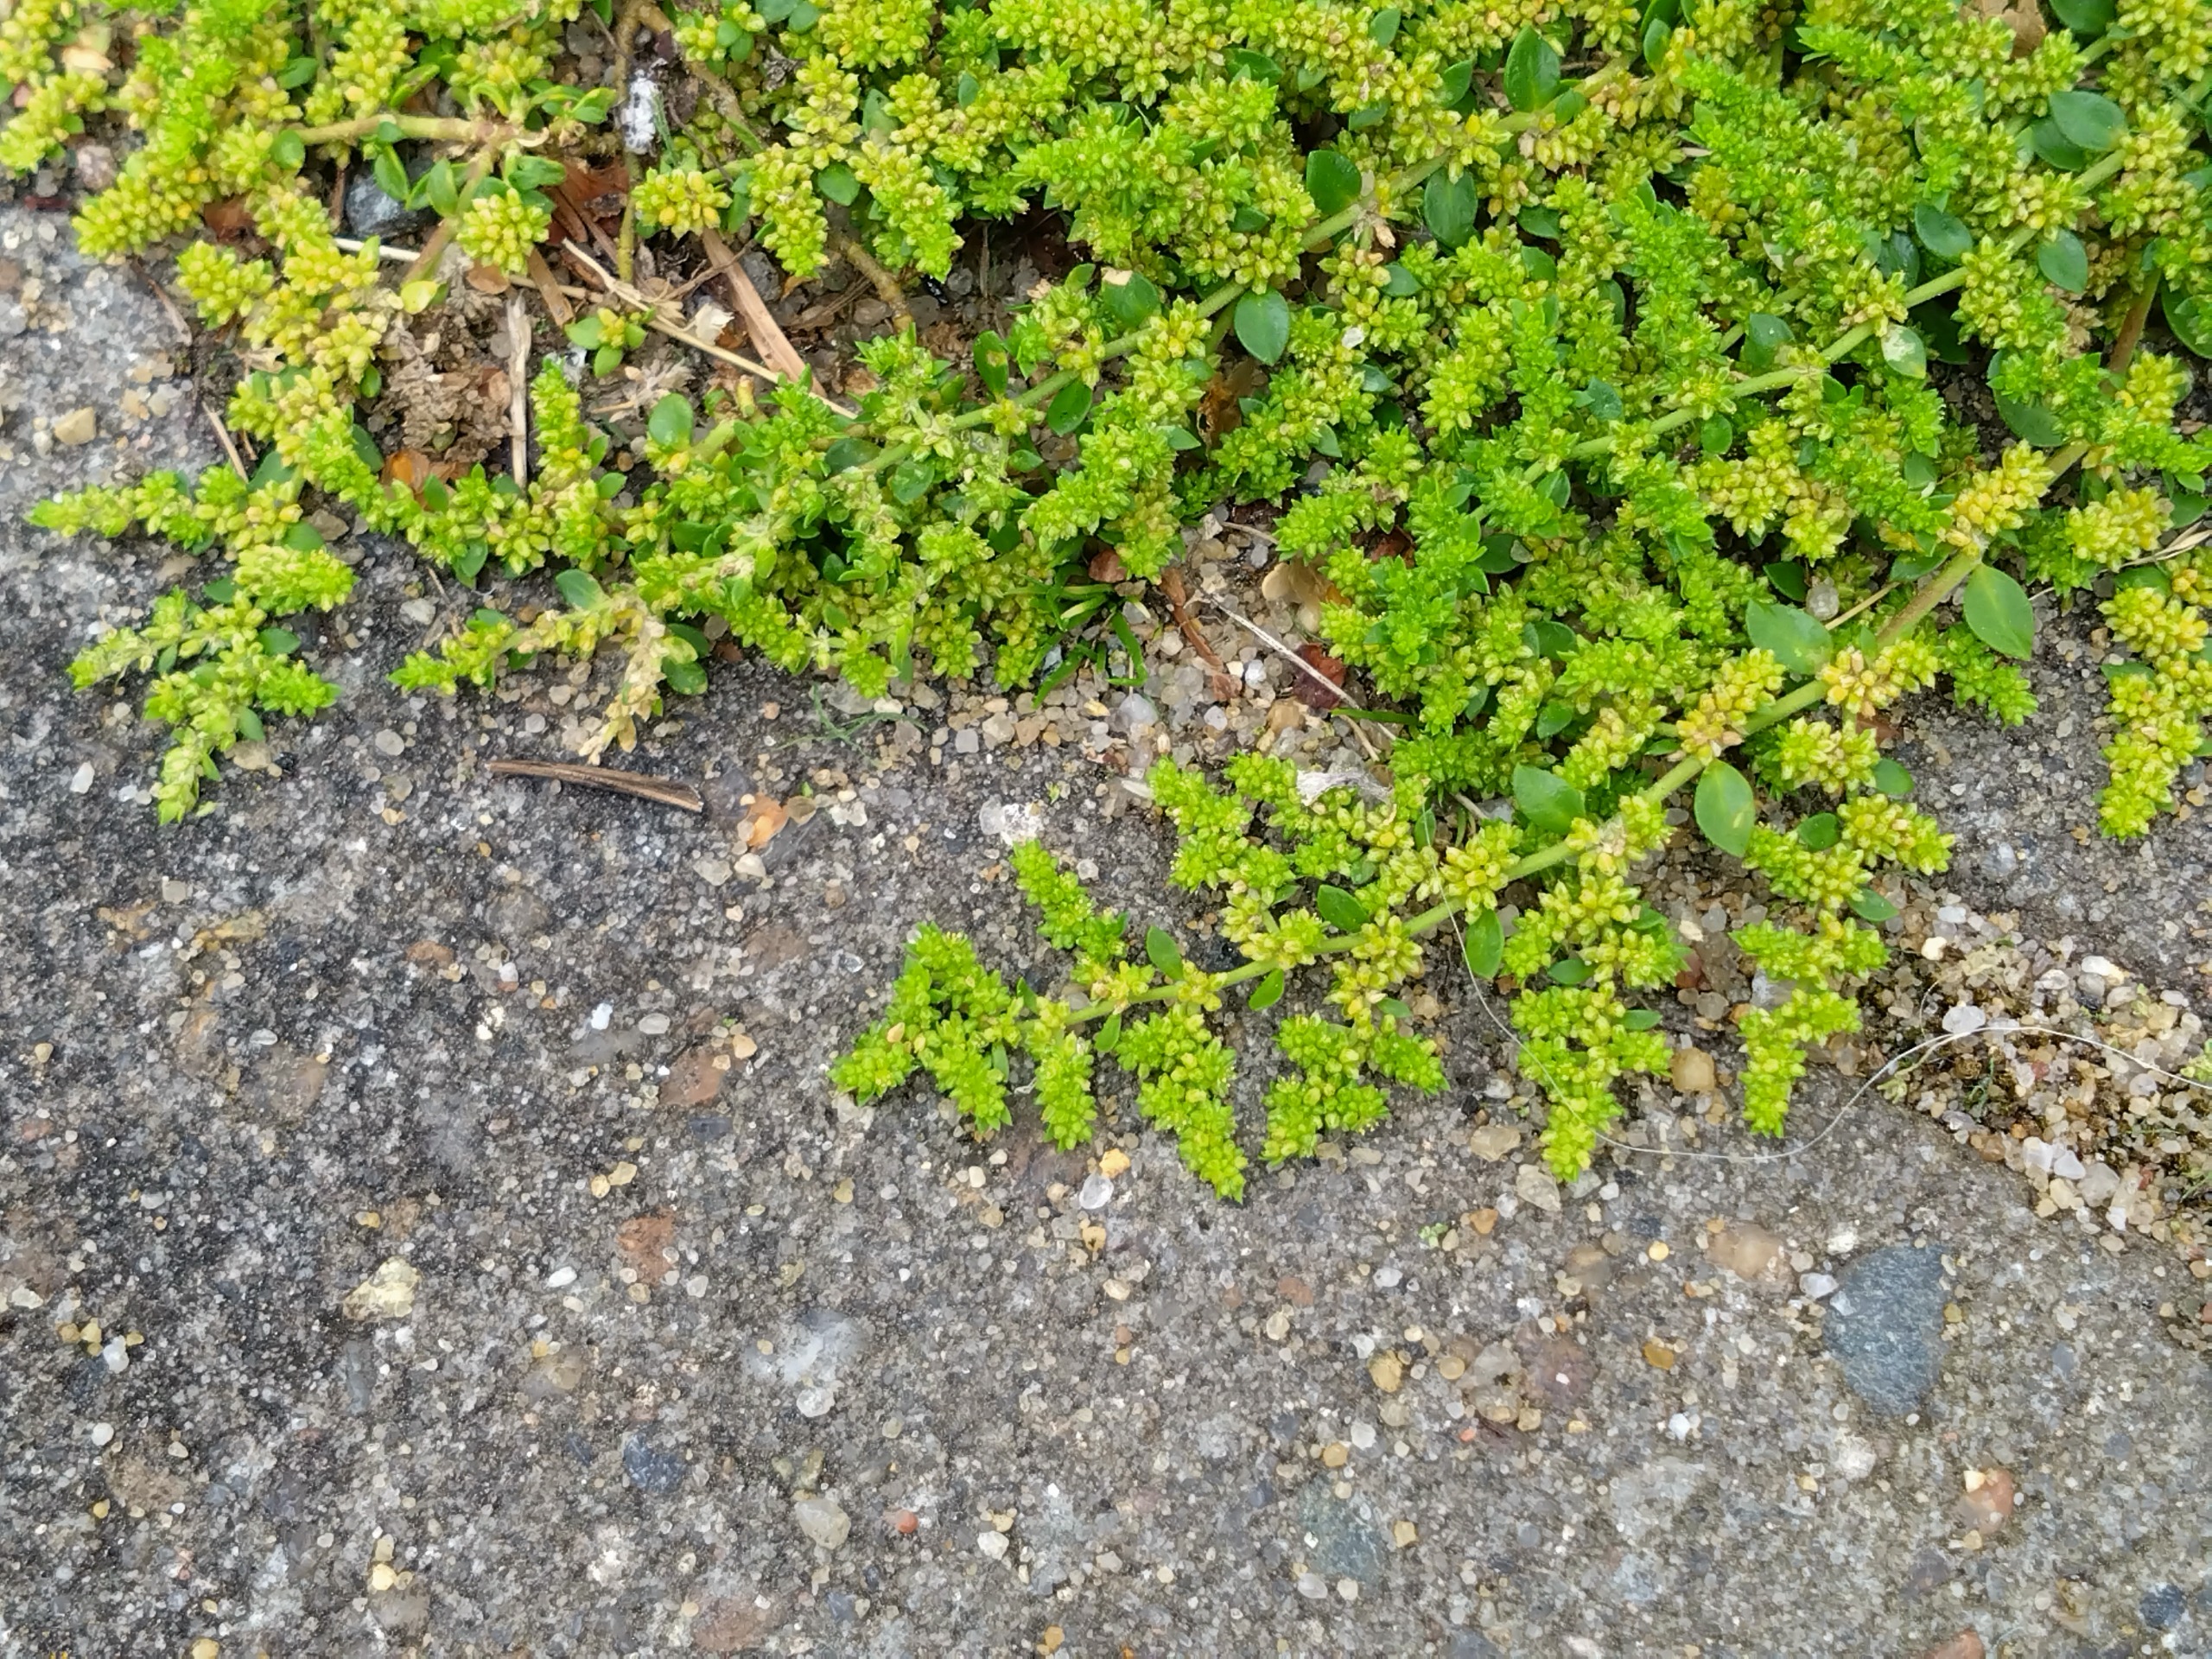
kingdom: Plantae
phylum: Tracheophyta
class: Magnoliopsida
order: Caryophyllales
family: Caryophyllaceae
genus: Herniaria
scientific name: Herniaria glabra
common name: Brudurt
